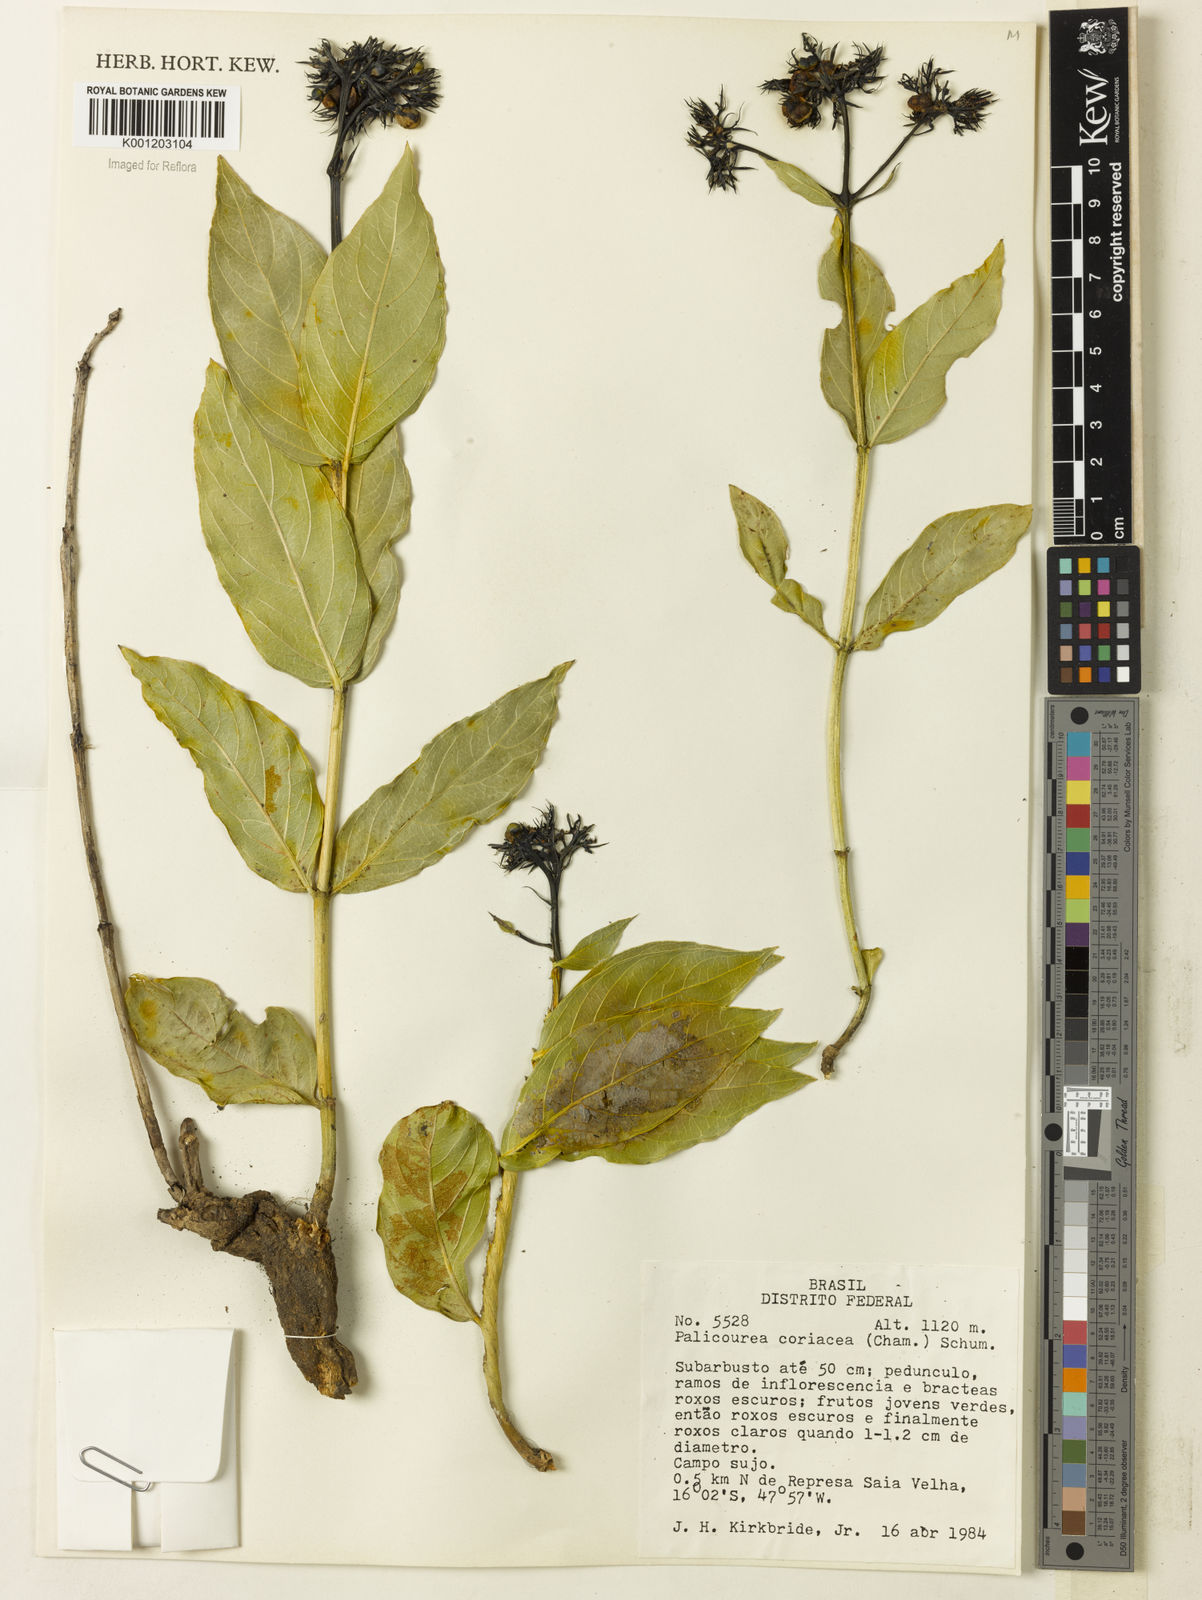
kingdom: Plantae
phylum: Tracheophyta
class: Magnoliopsida
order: Gentianales
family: Rubiaceae
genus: Palicourea
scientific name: Palicourea coriacea
